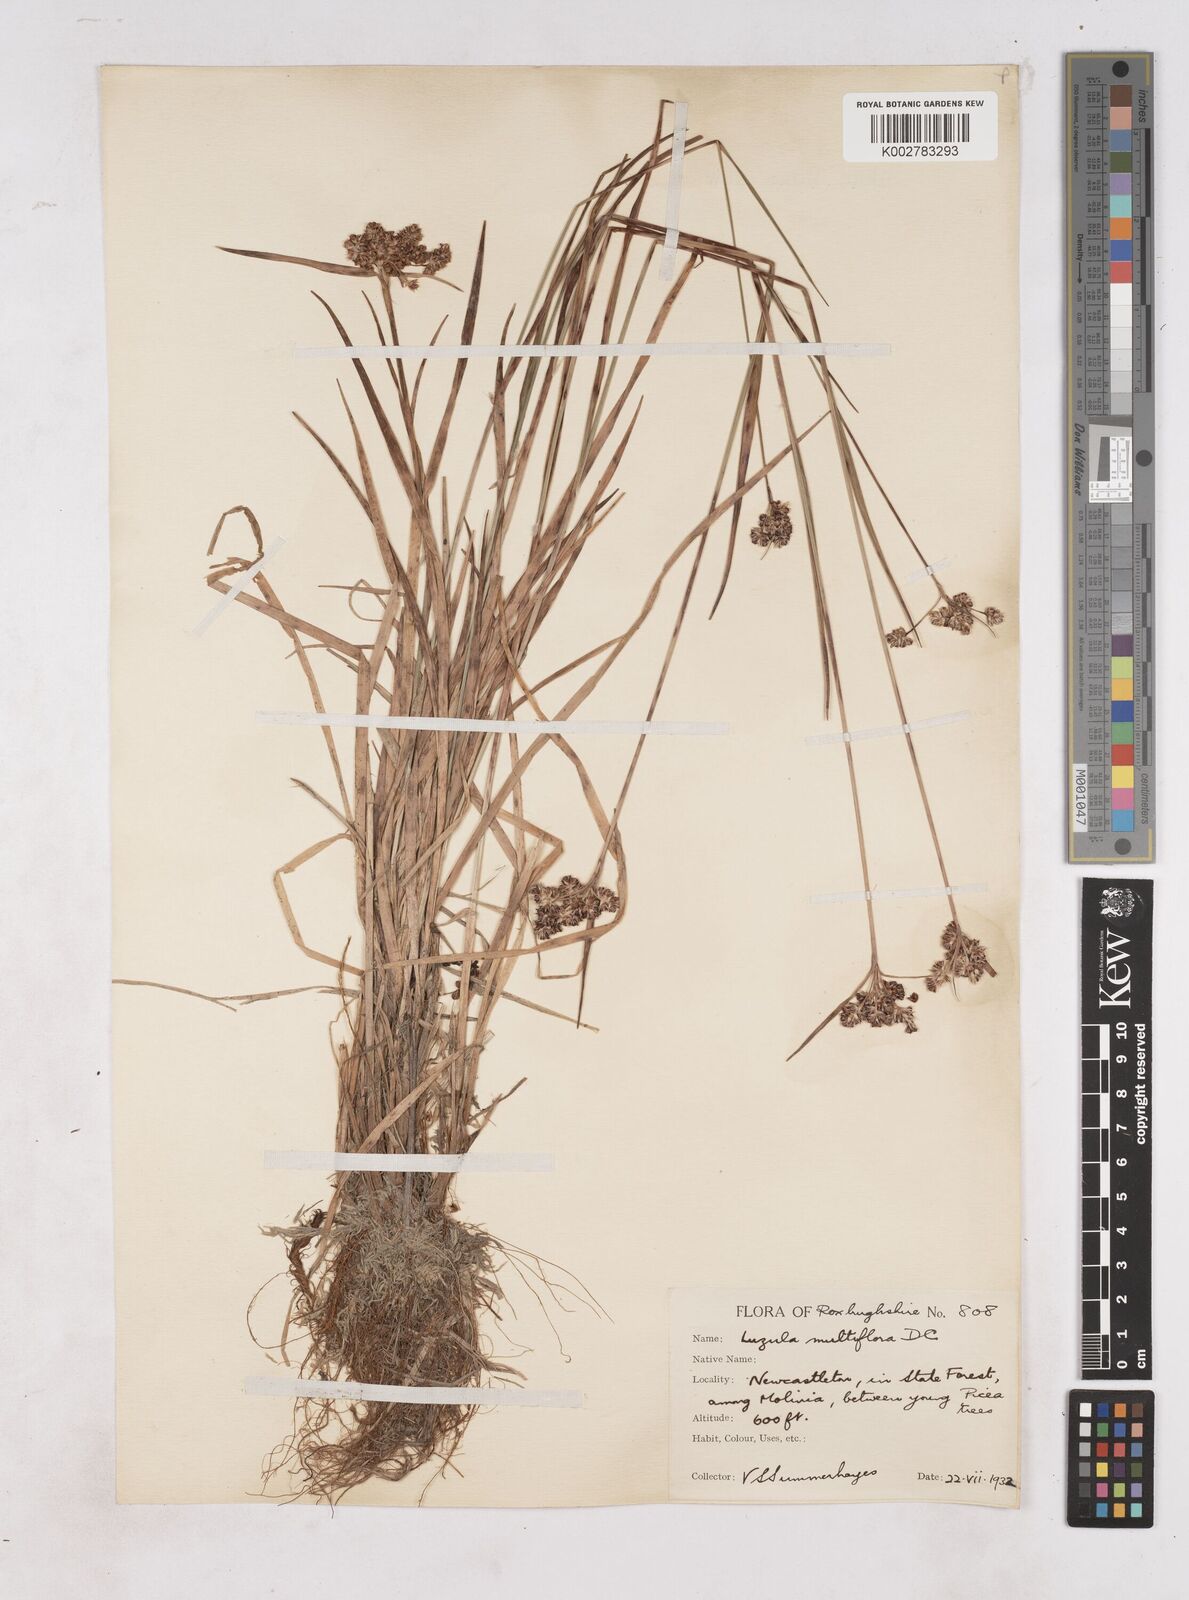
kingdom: Plantae
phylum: Tracheophyta
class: Liliopsida
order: Poales
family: Juncaceae
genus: Luzula
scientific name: Luzula multiflora
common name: Heath wood-rush
